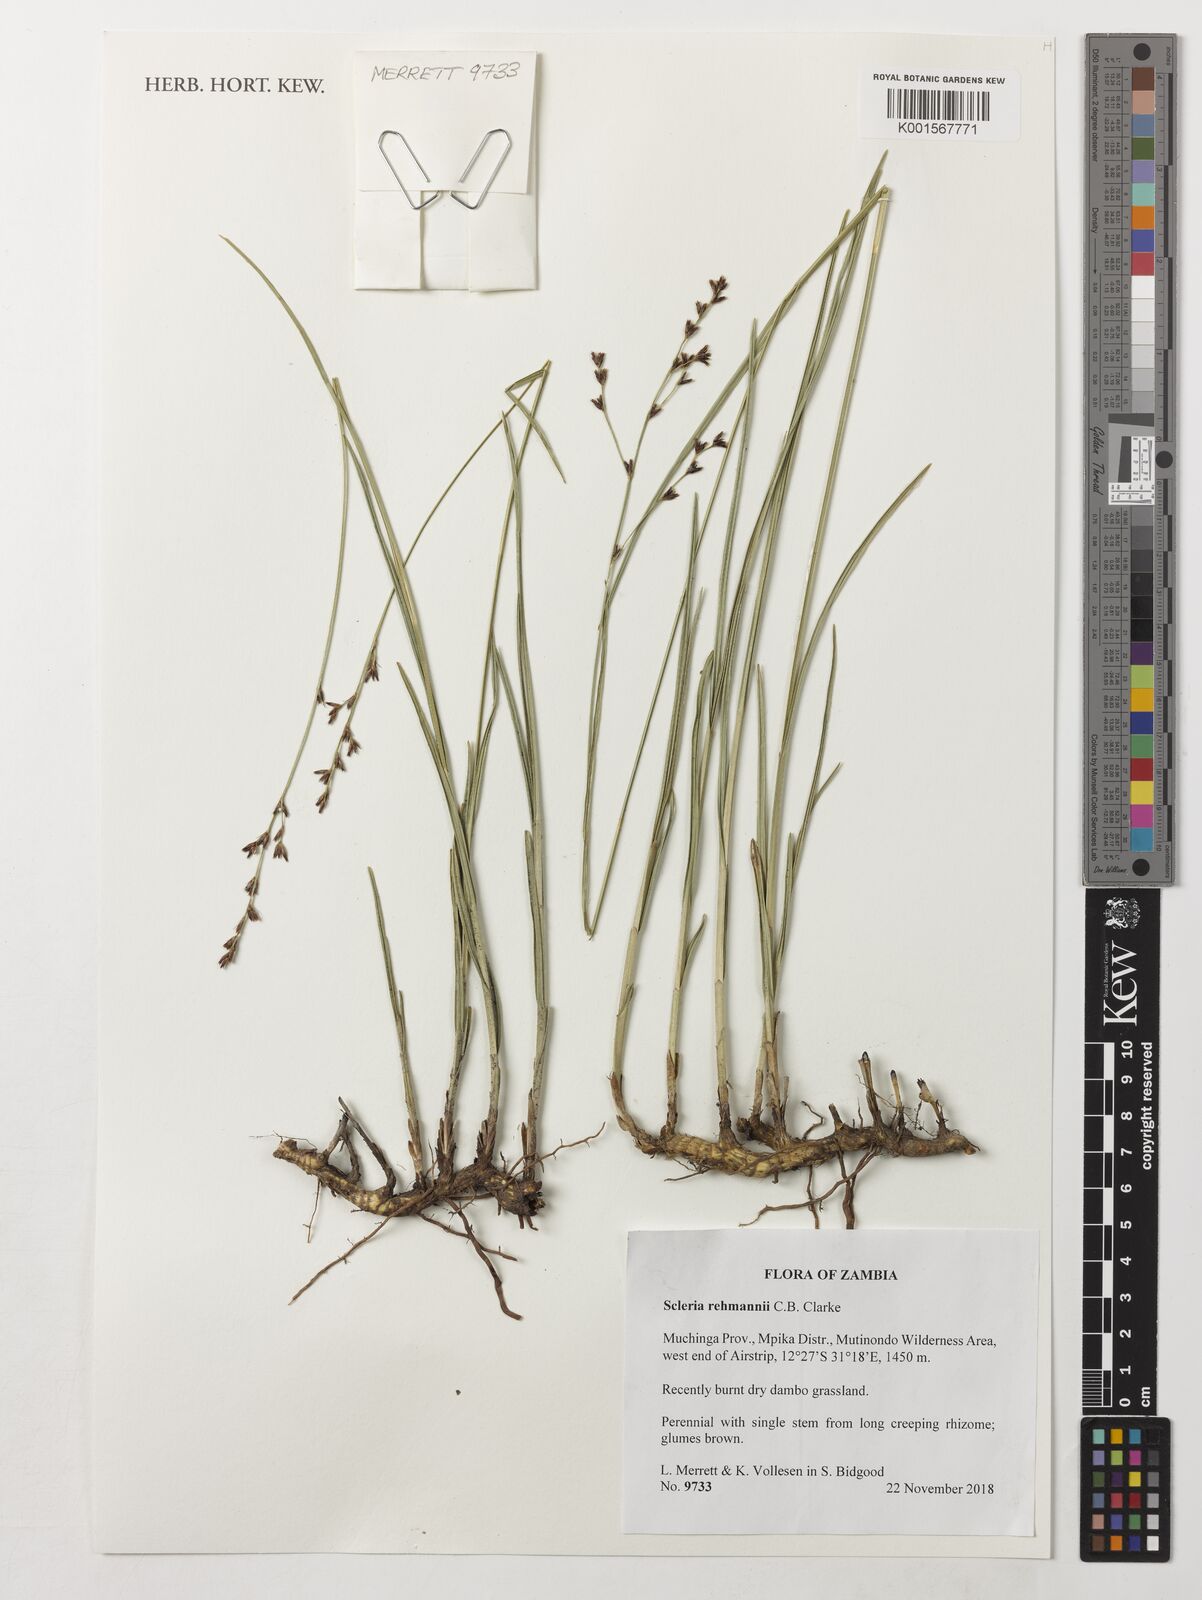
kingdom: Plantae
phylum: Tracheophyta
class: Liliopsida
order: Poales
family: Cyperaceae
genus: Scleria
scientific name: Scleria rehmannii
